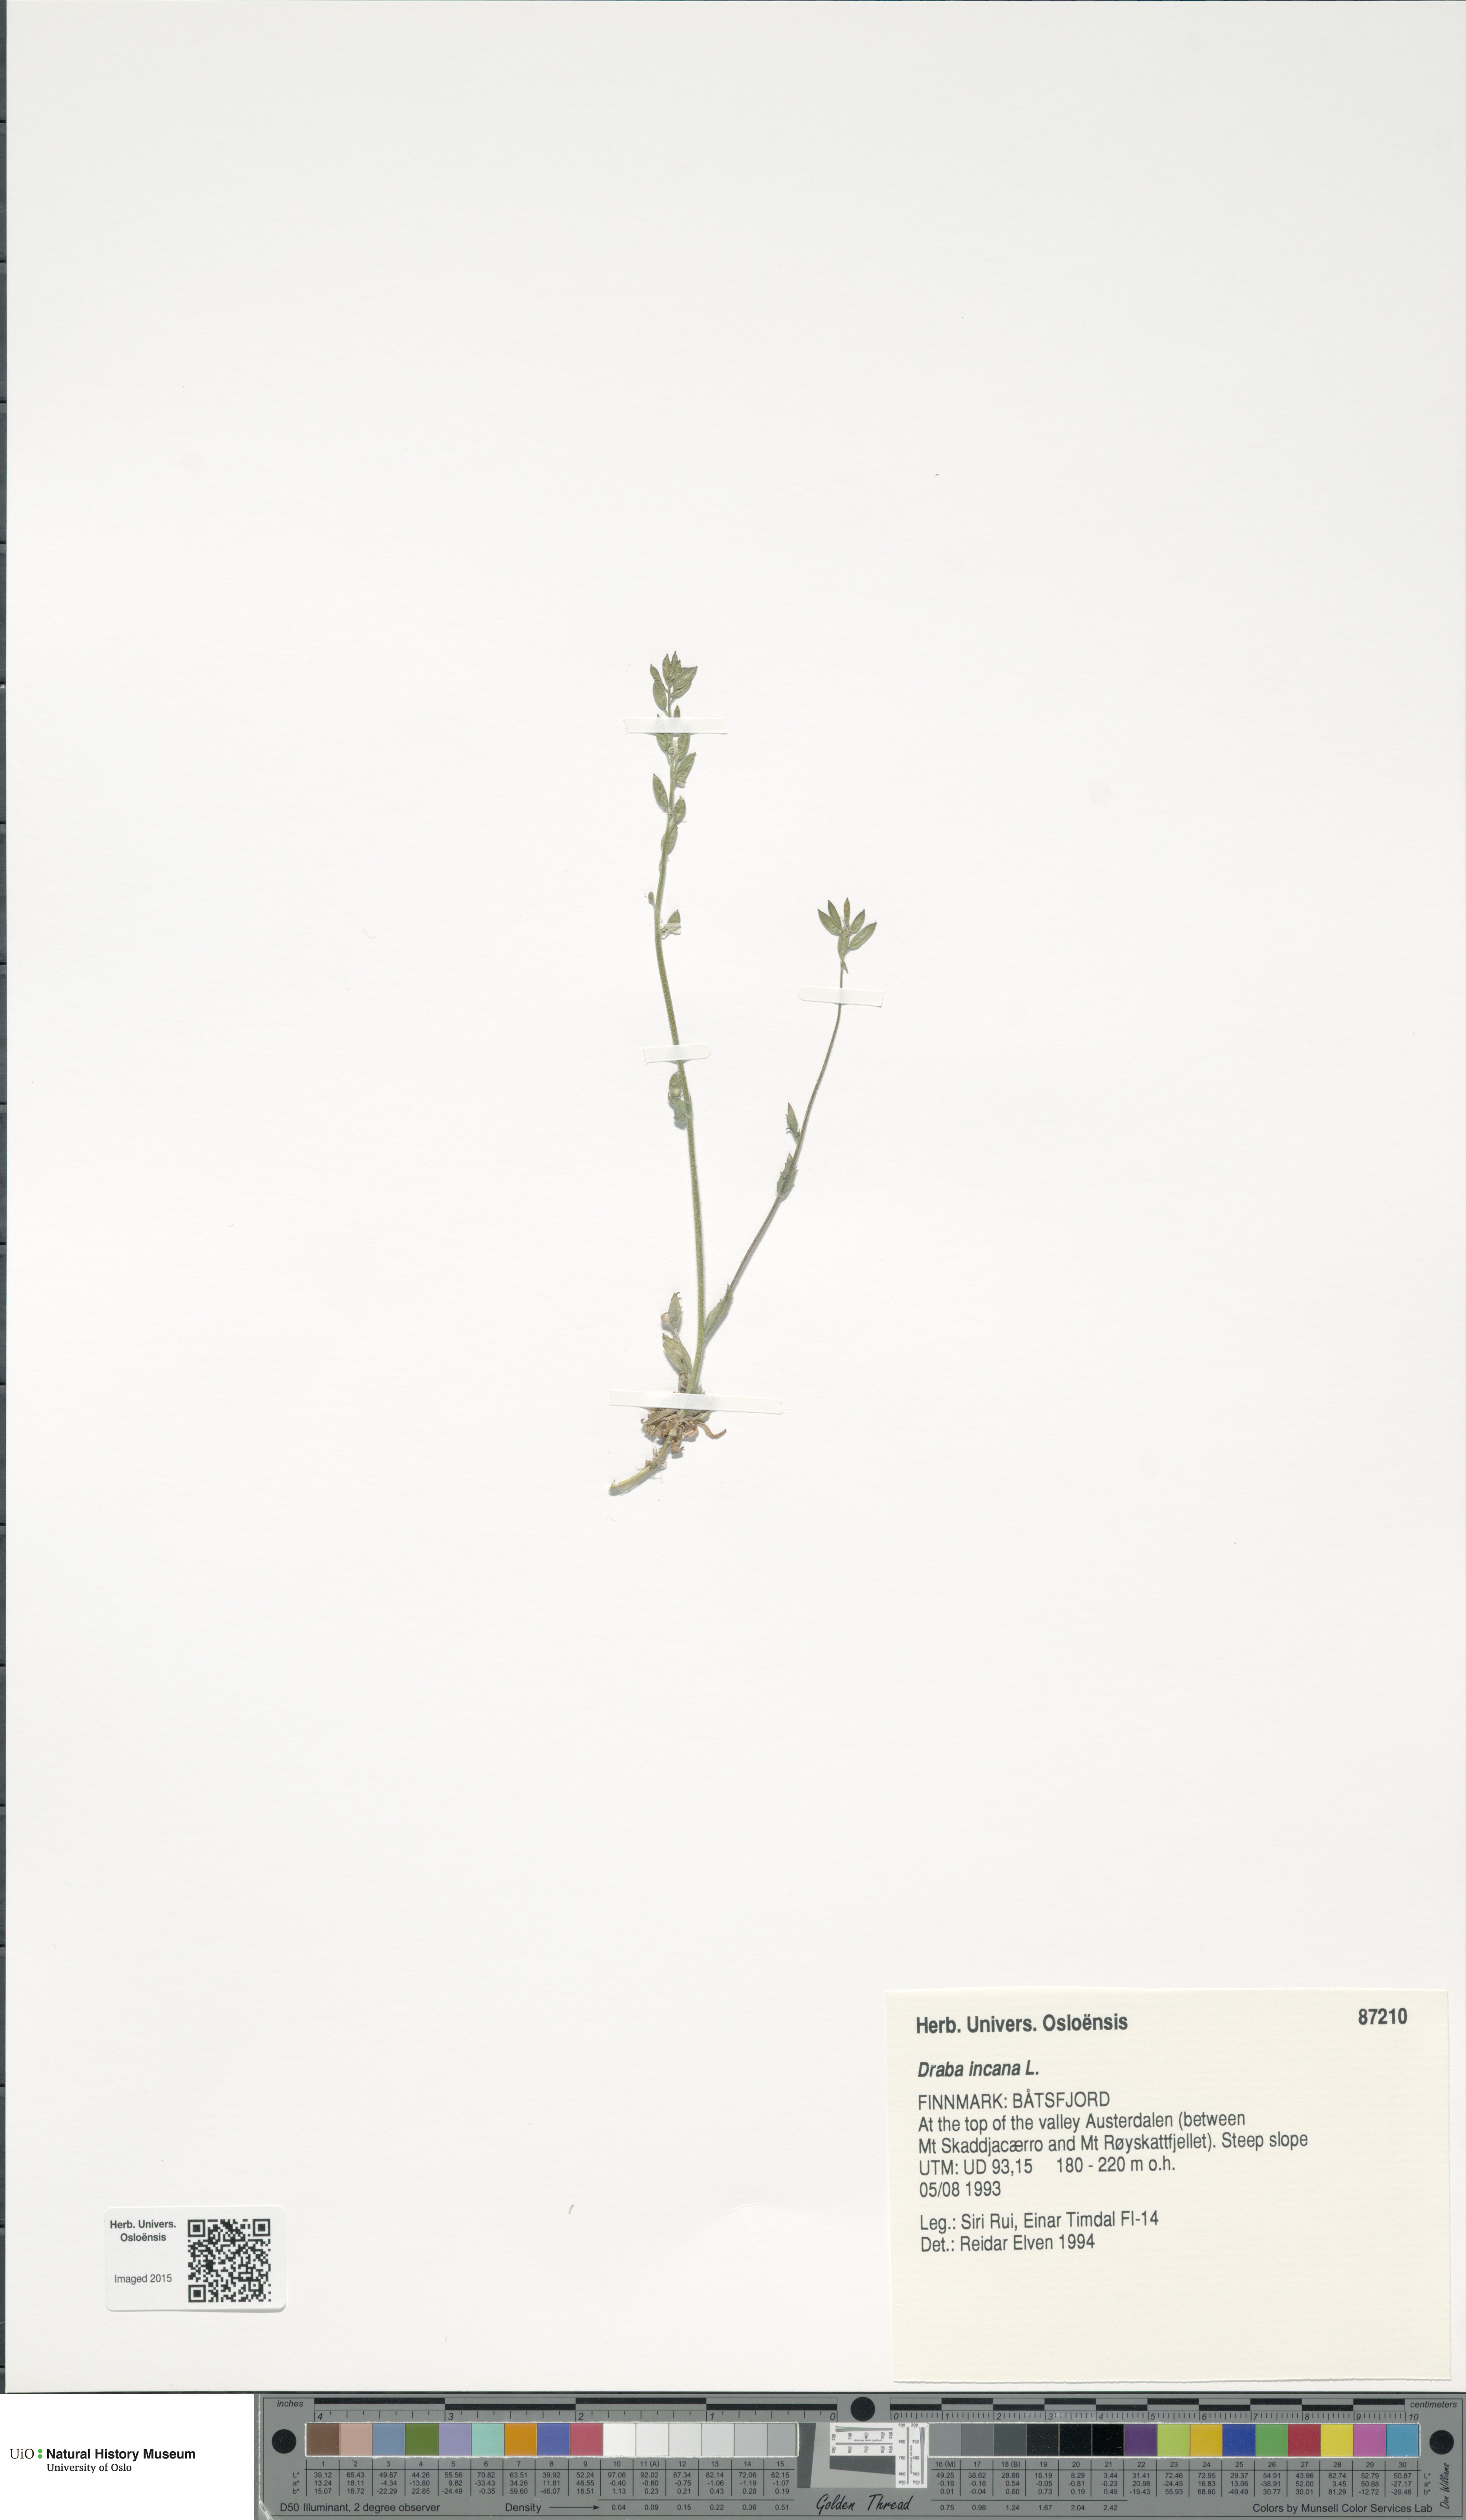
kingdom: Plantae
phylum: Tracheophyta
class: Magnoliopsida
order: Brassicales
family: Brassicaceae
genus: Draba
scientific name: Draba incana
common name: Hoary whitlow-grass
